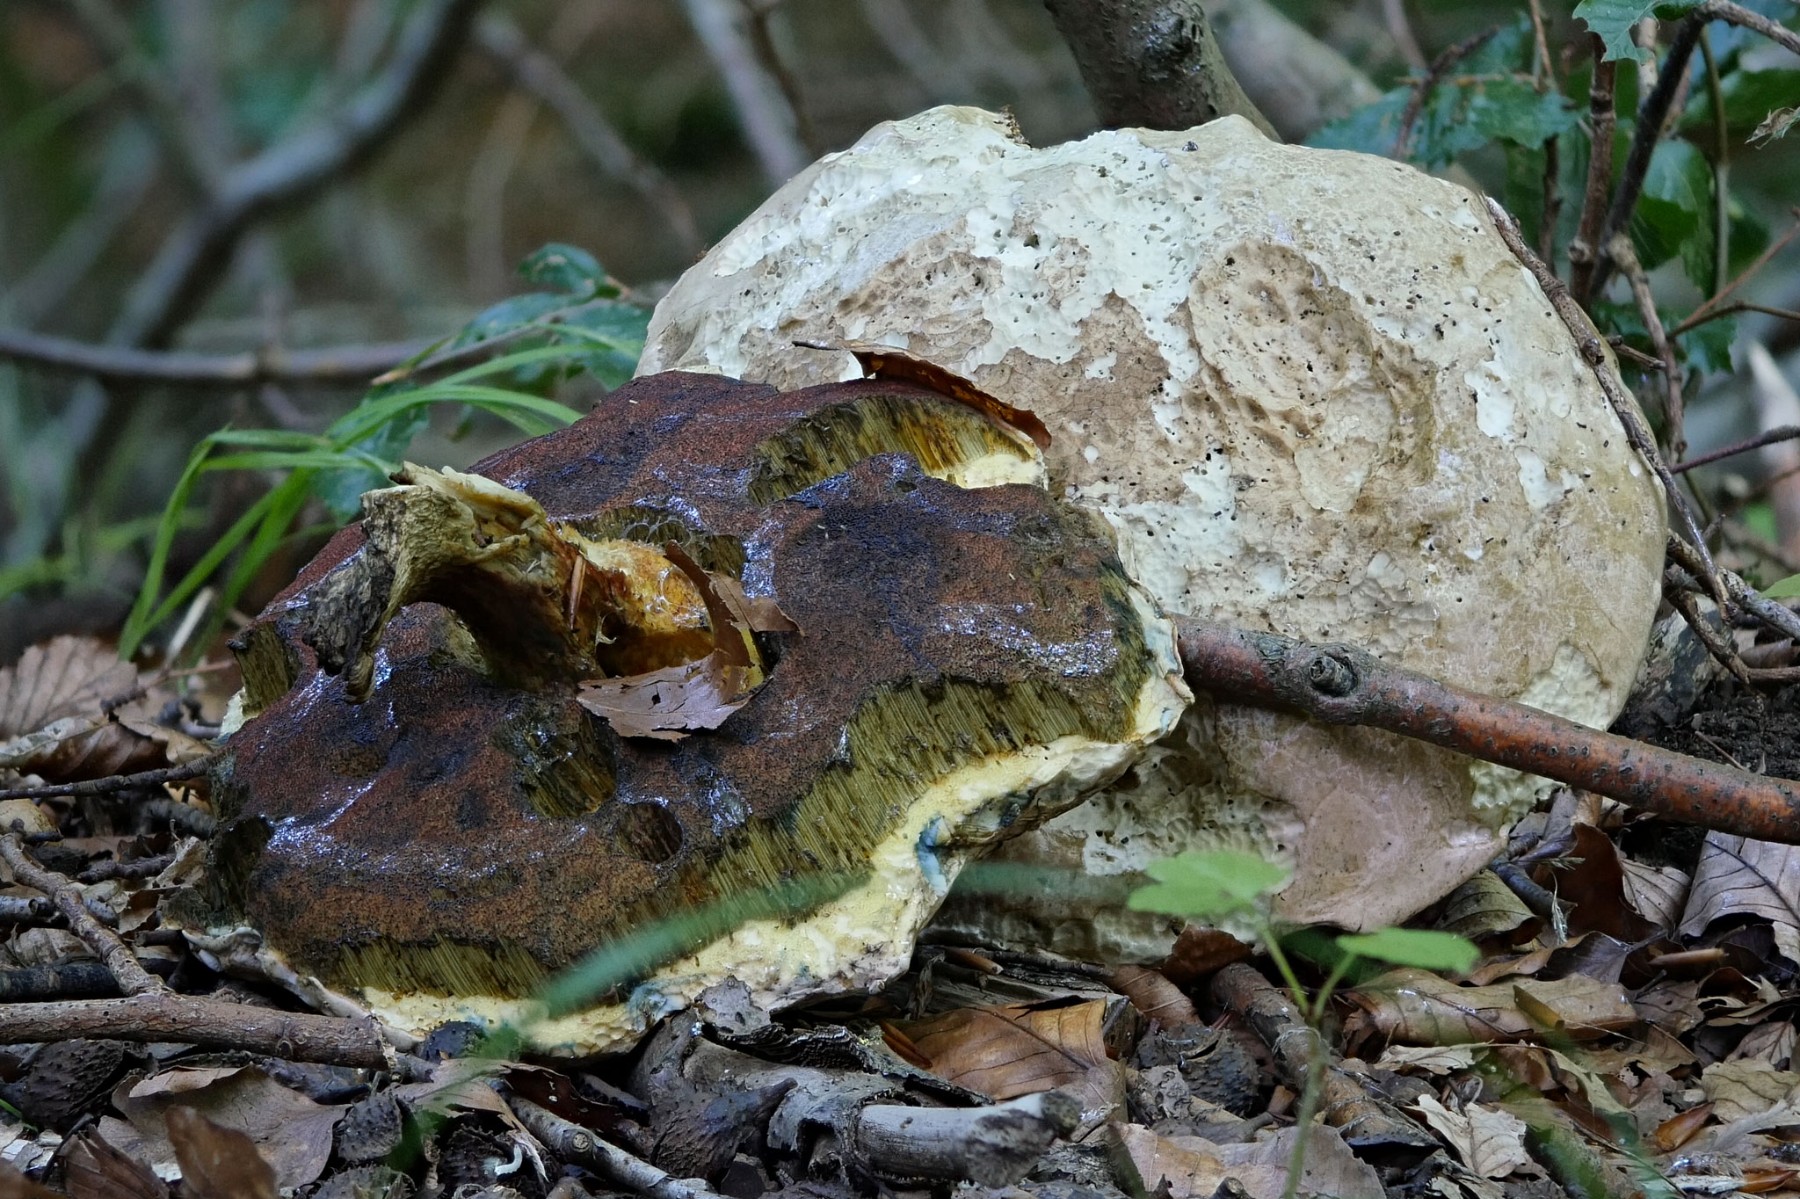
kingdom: Fungi
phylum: Basidiomycota
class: Agaricomycetes
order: Boletales
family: Boletaceae
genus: Rubroboletus
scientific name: Rubroboletus satanas
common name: Satans rørhat
